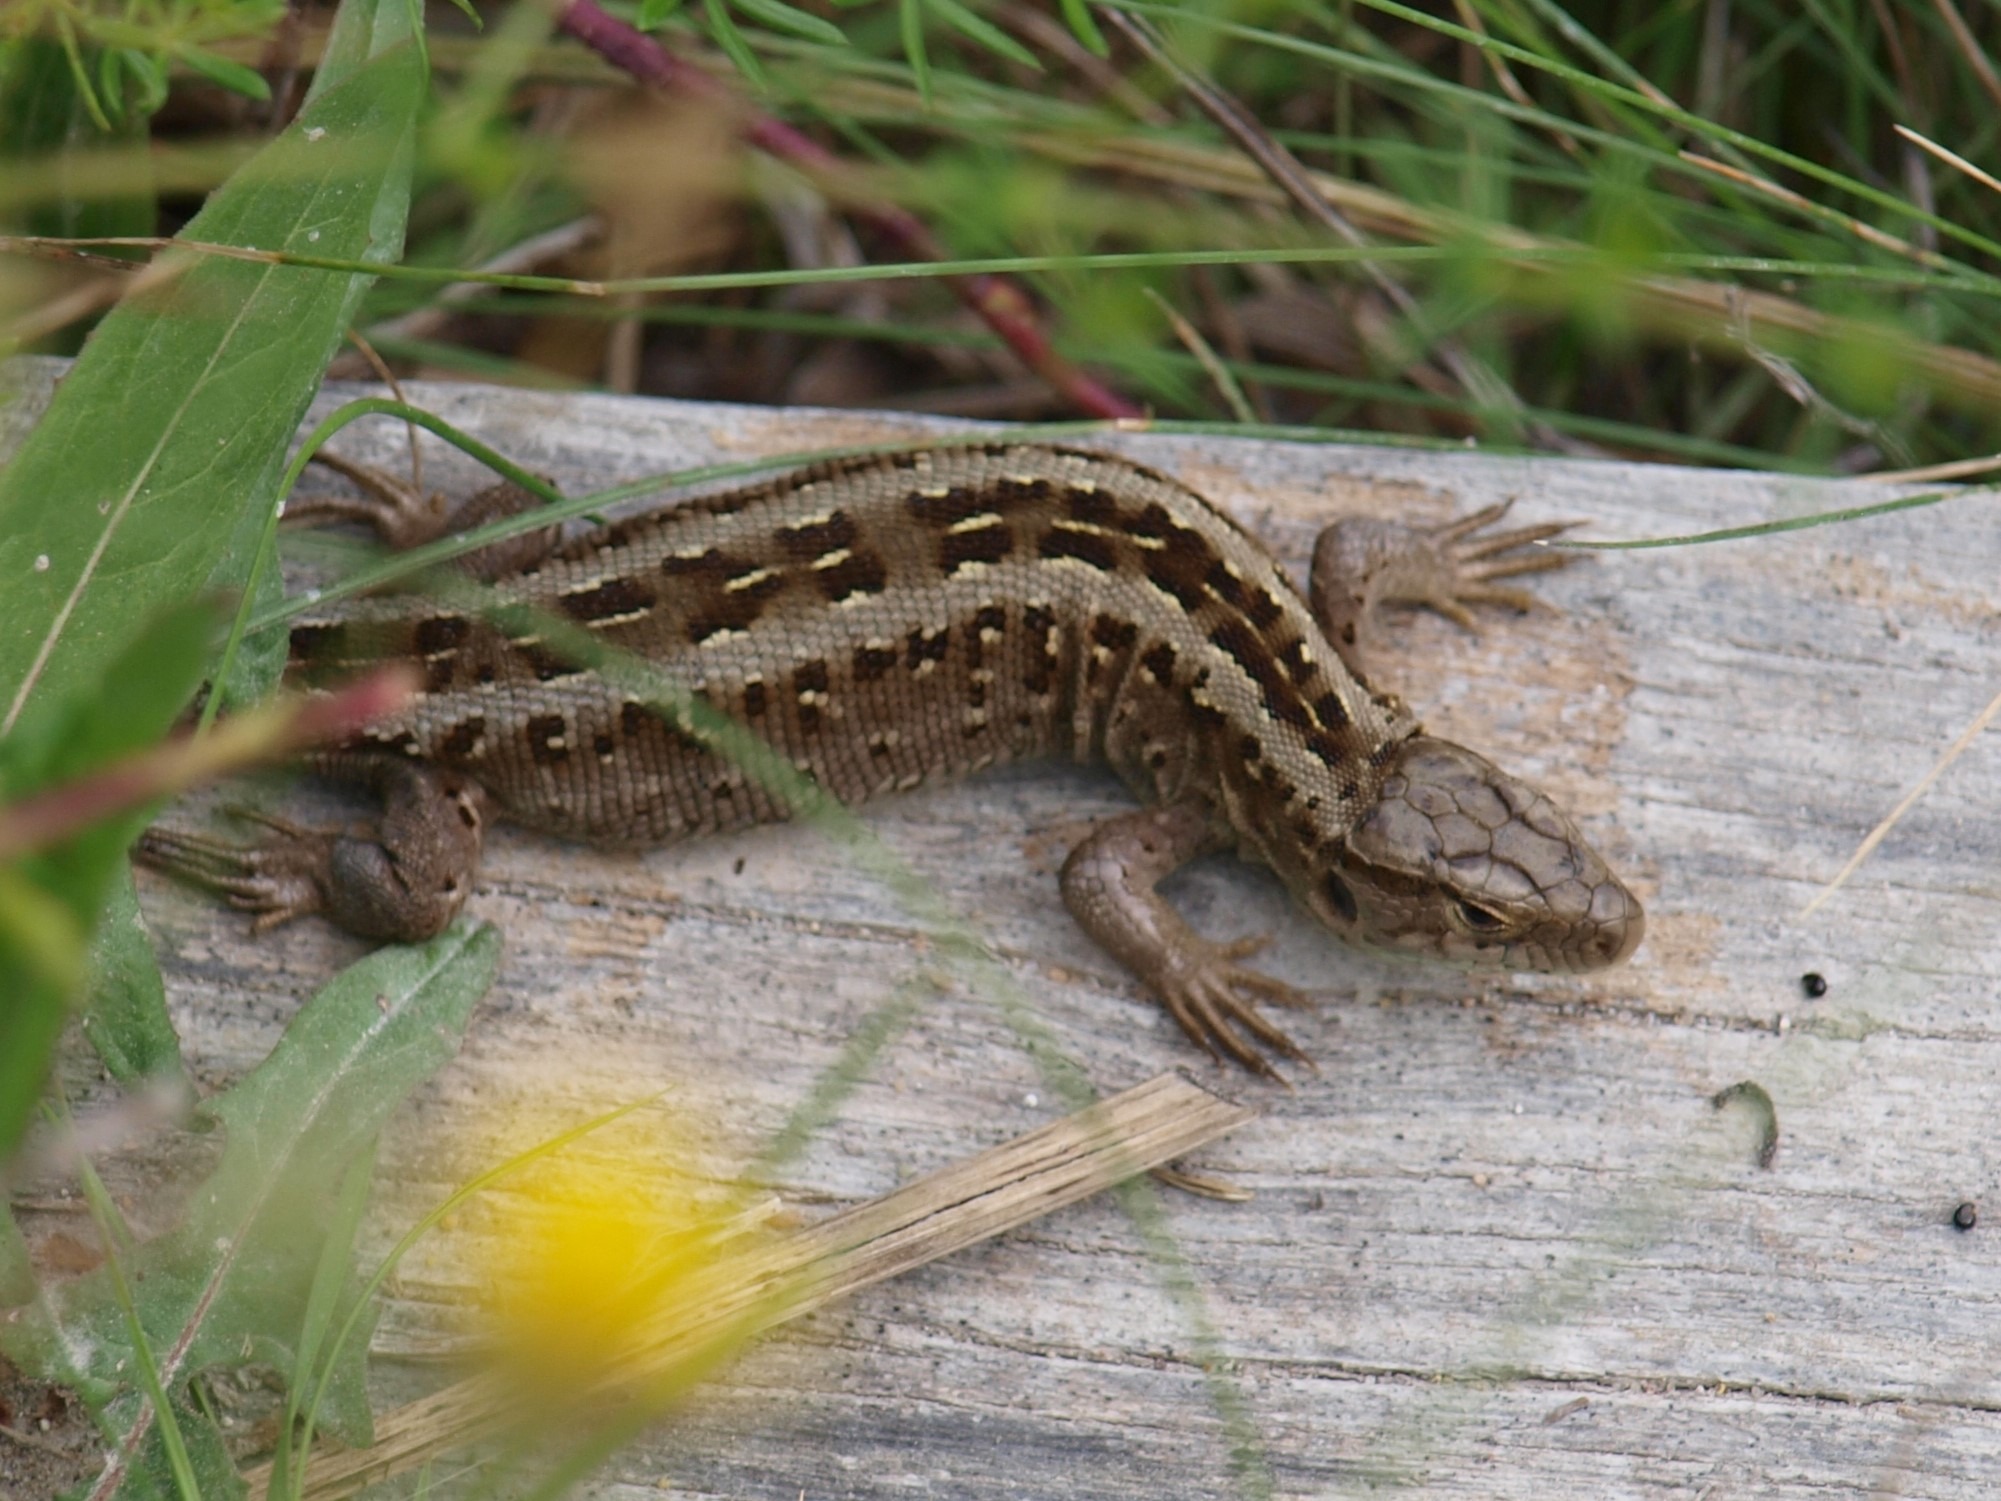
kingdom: Animalia
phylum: Chordata
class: Squamata
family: Lacertidae
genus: Lacerta
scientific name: Lacerta agilis
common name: Markfirben
